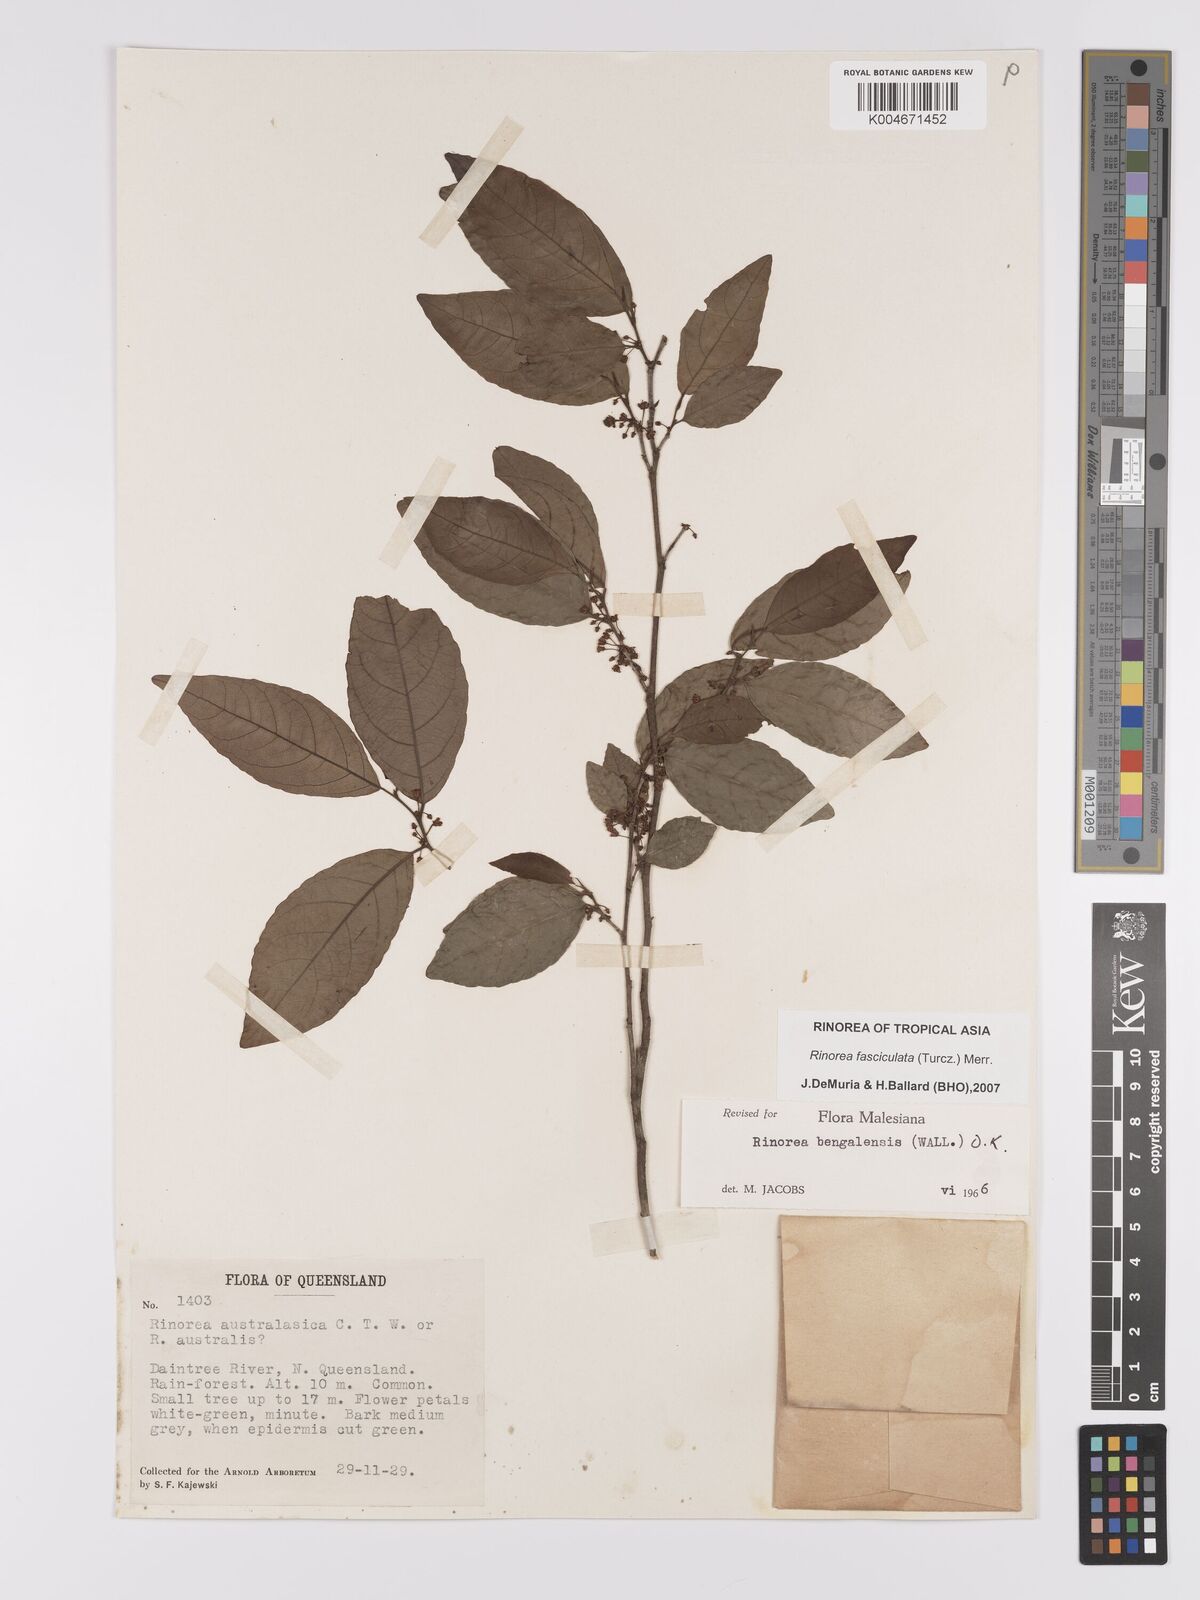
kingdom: Plantae
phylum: Tracheophyta
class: Magnoliopsida
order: Malpighiales
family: Violaceae
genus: Rinorea
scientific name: Rinorea bengalensis
